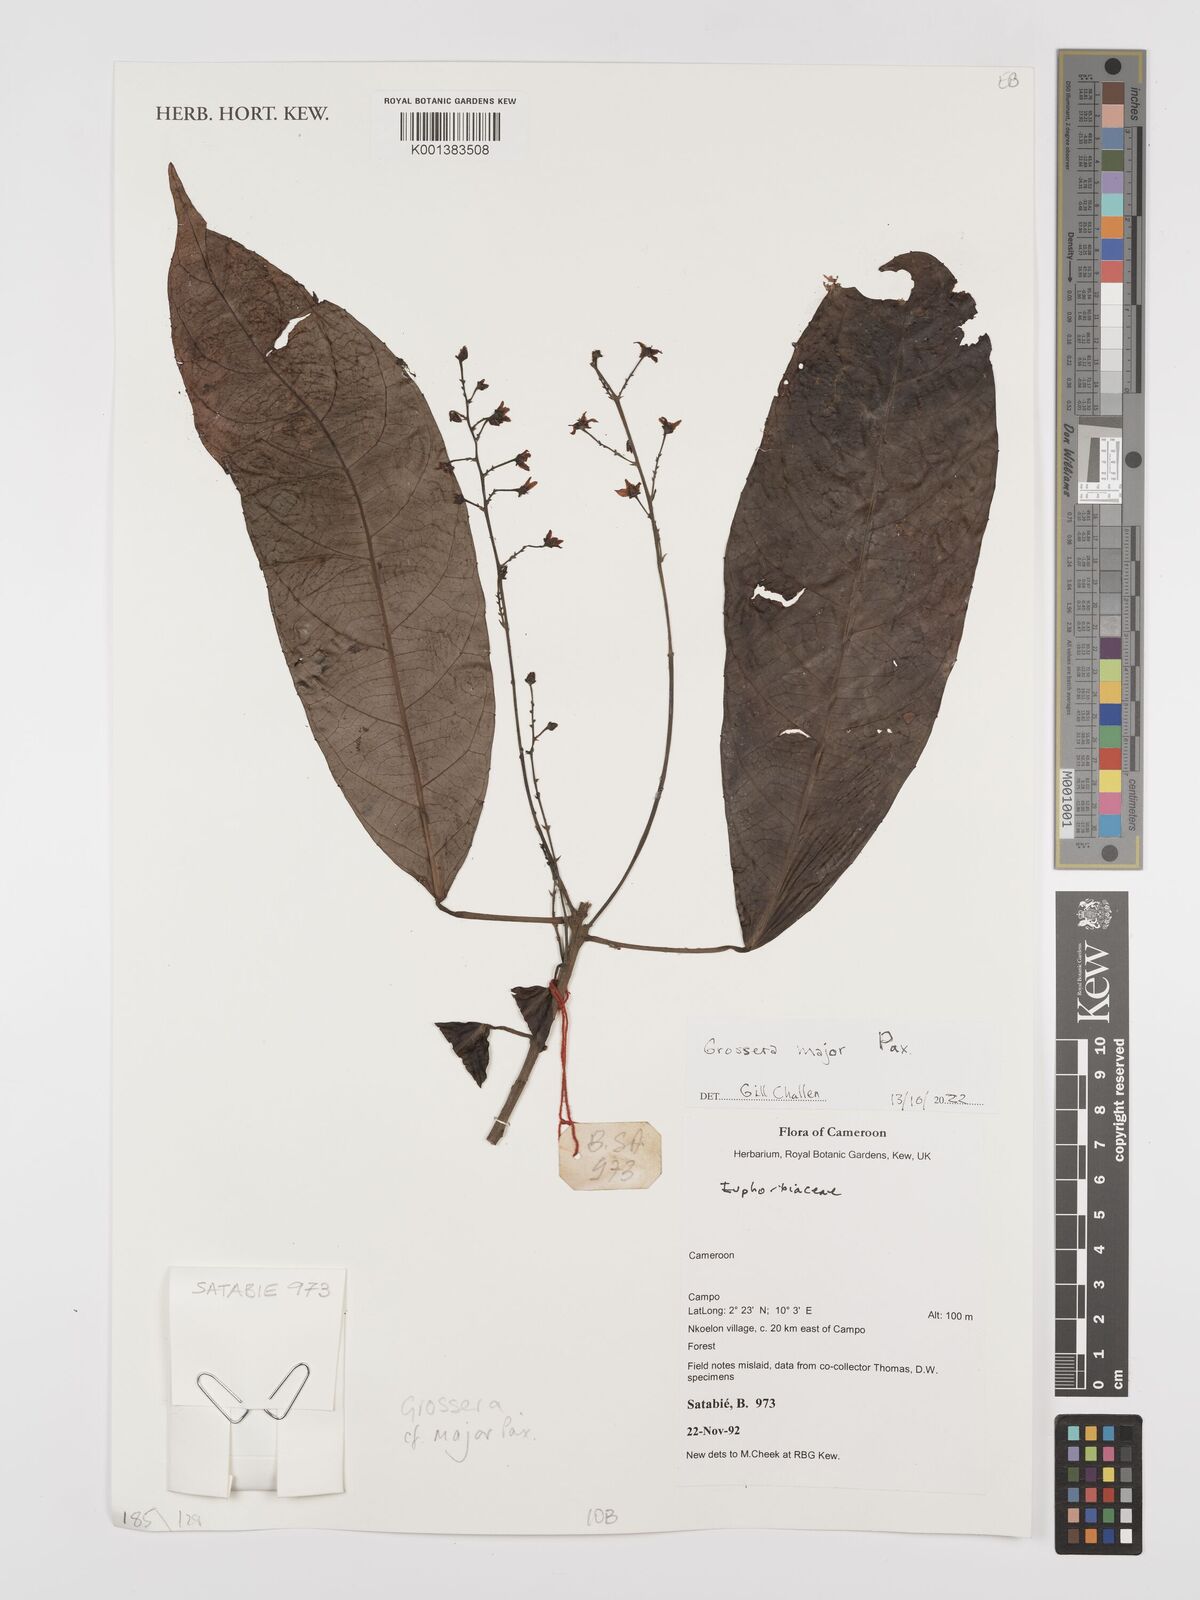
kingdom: Plantae
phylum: Tracheophyta
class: Magnoliopsida
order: Malpighiales
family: Euphorbiaceae
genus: Grossera
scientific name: Grossera major
